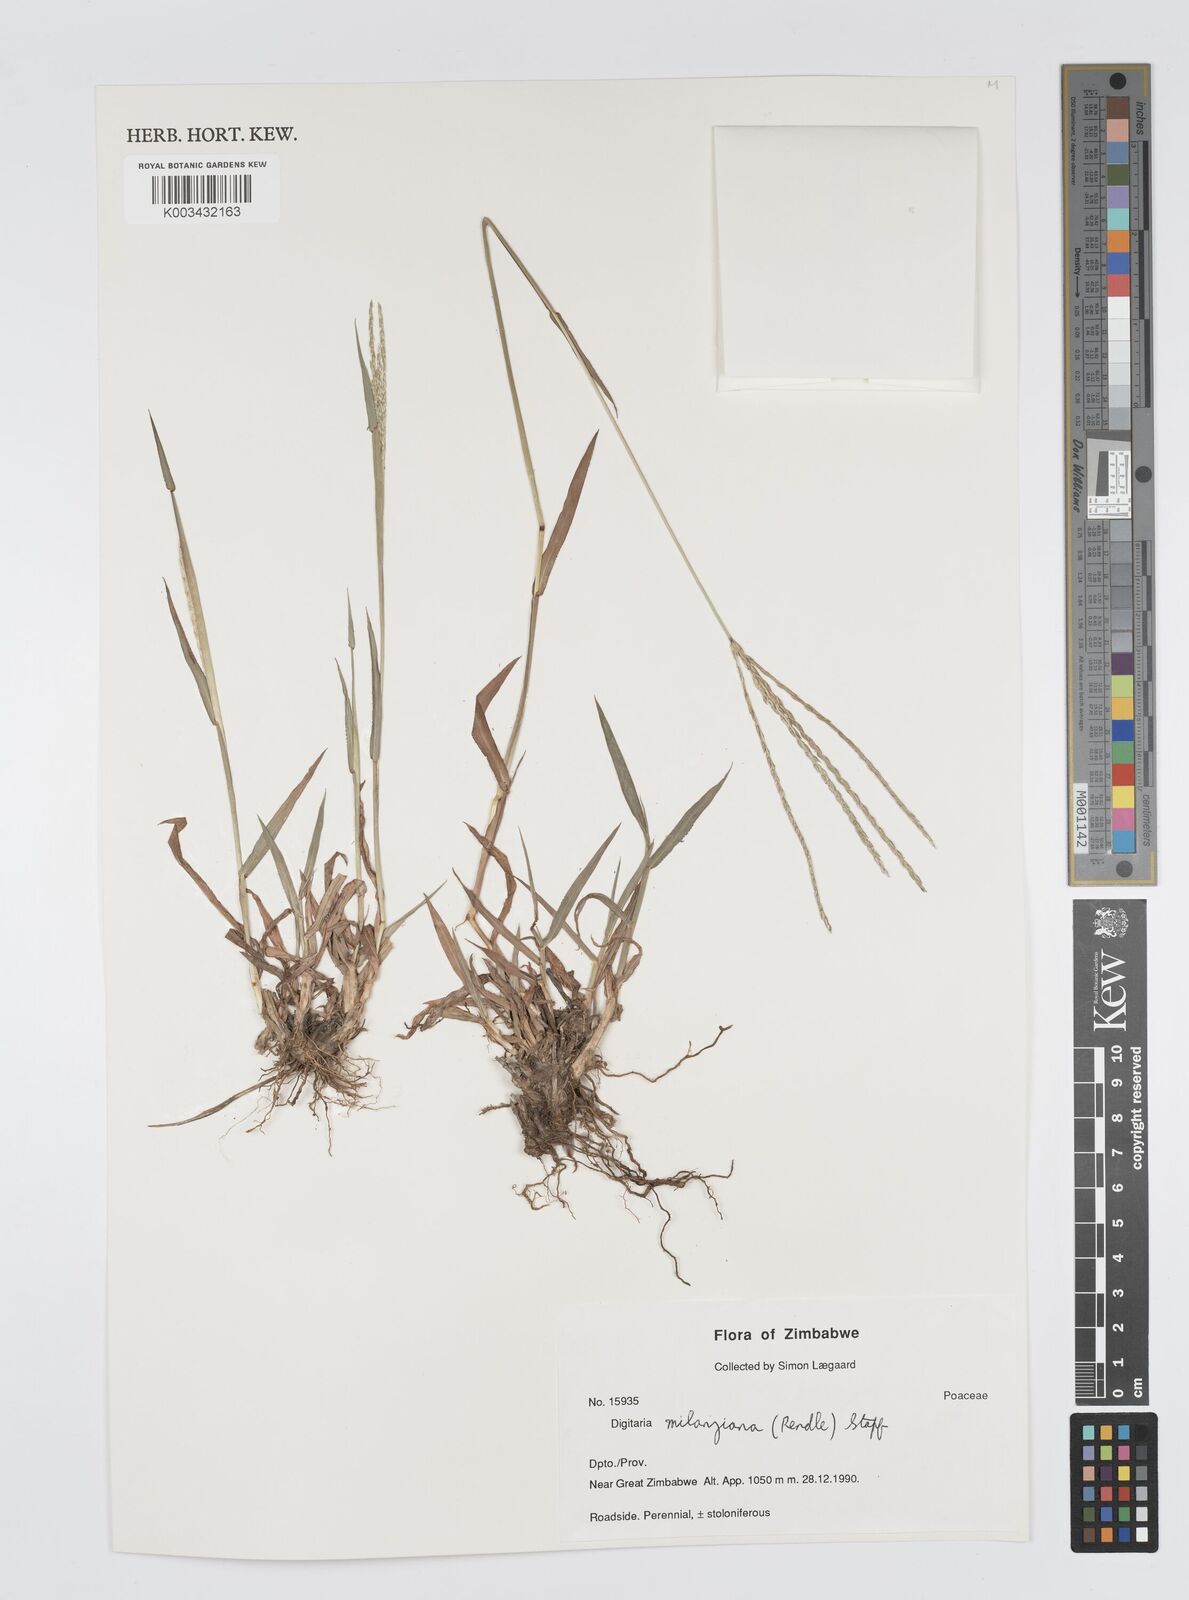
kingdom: Plantae
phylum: Tracheophyta
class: Liliopsida
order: Poales
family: Poaceae
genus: Digitaria
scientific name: Digitaria milanjiana
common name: Madagascar crabgrass
